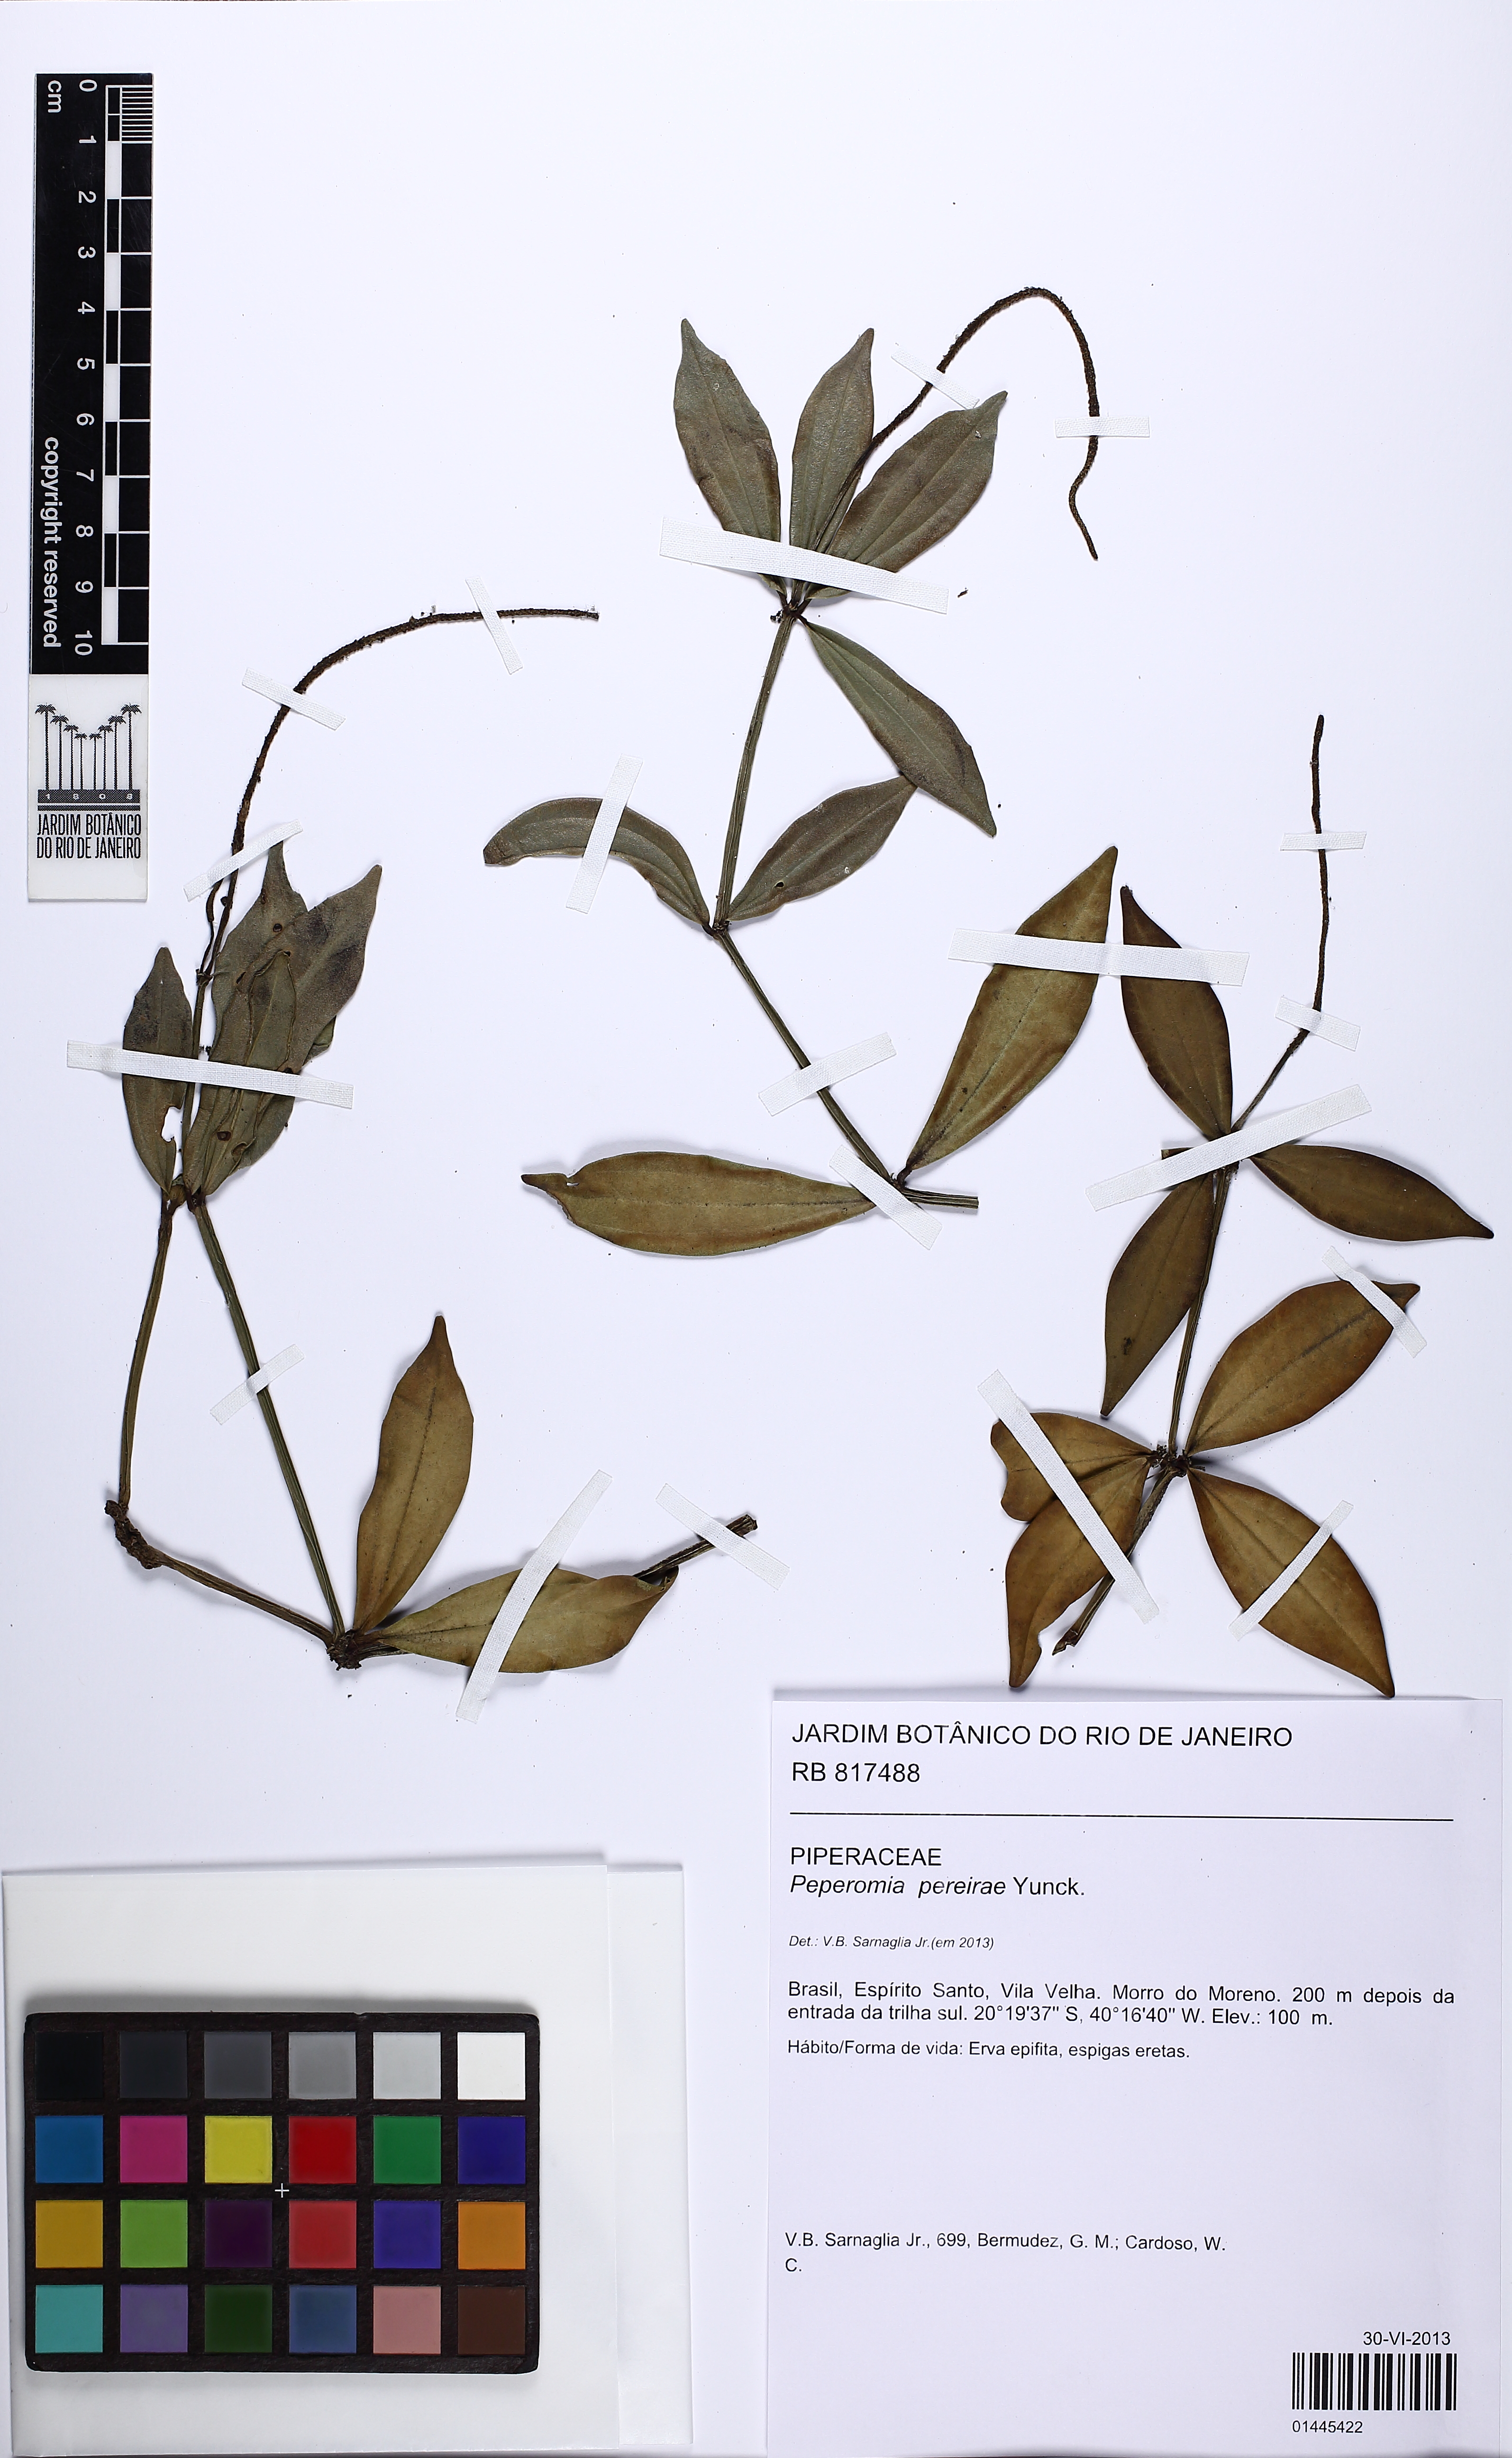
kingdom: Plantae
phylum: Tracheophyta
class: Magnoliopsida
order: Piperales
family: Piperaceae
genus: Peperomia
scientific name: Peperomia hirtellicaulis
